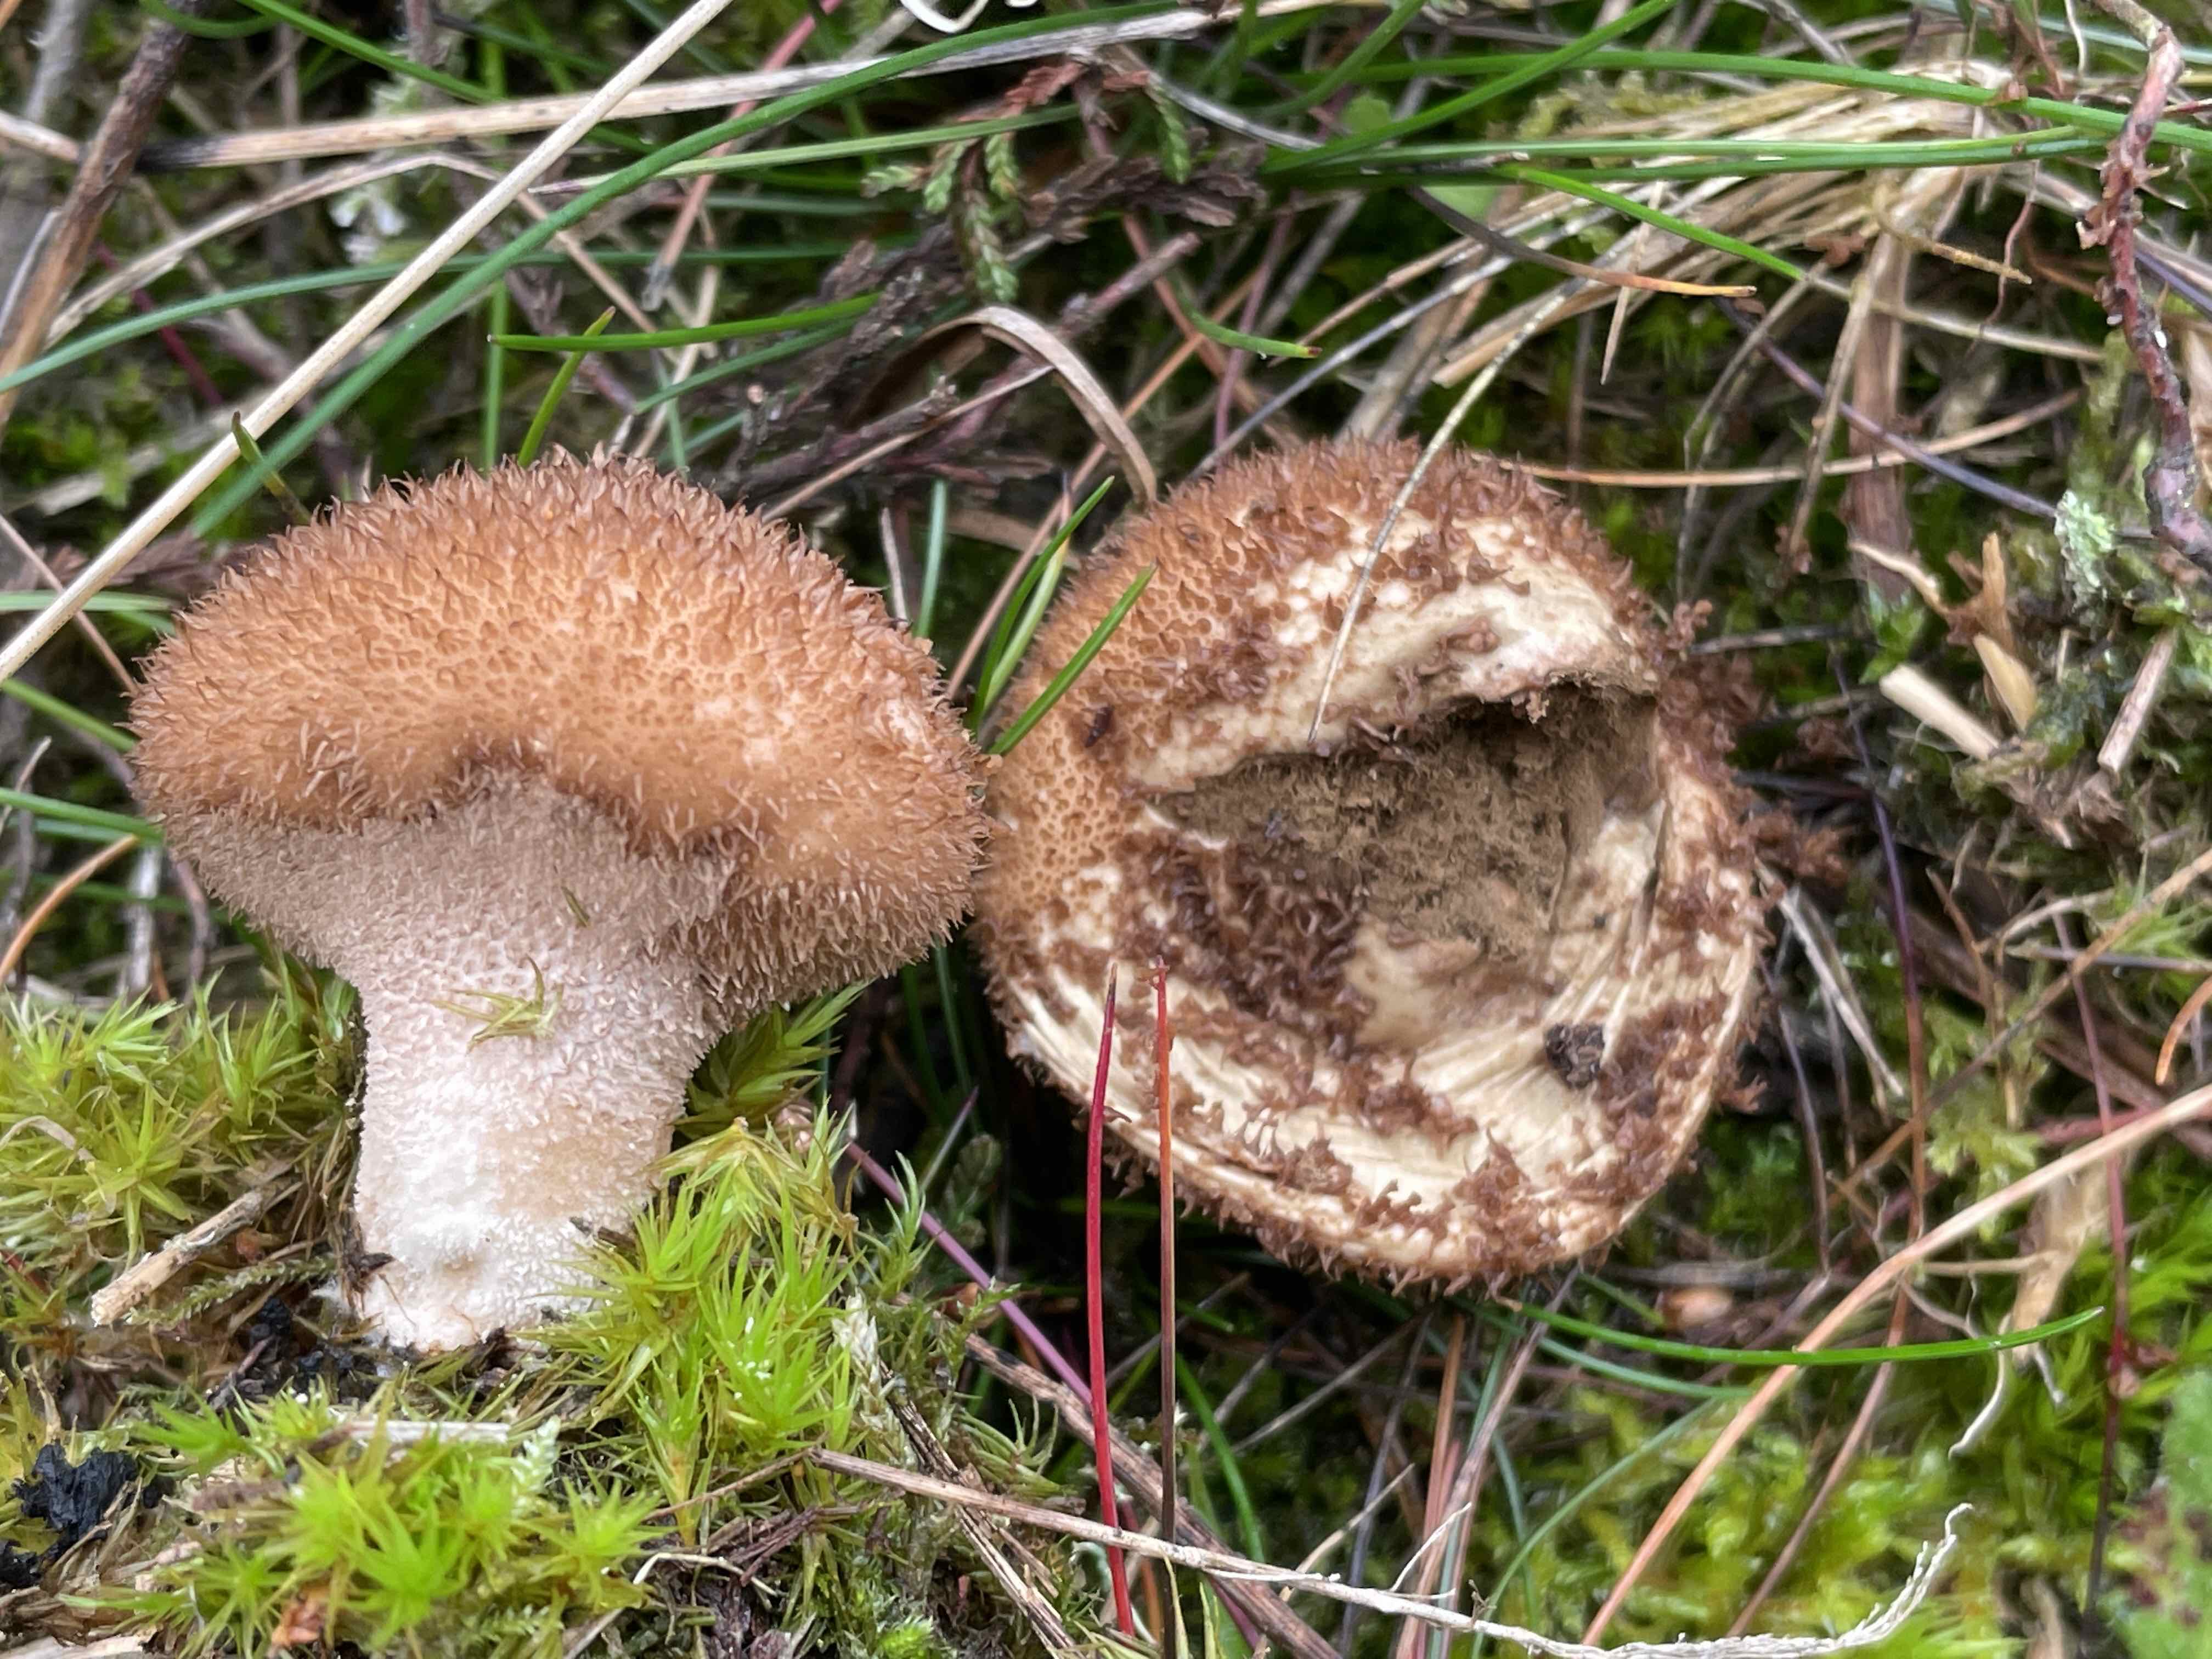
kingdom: Fungi
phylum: Basidiomycota
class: Agaricomycetes
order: Agaricales
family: Lycoperdaceae
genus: Lycoperdon
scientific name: Lycoperdon nigrescens
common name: sortagtig støvbold
